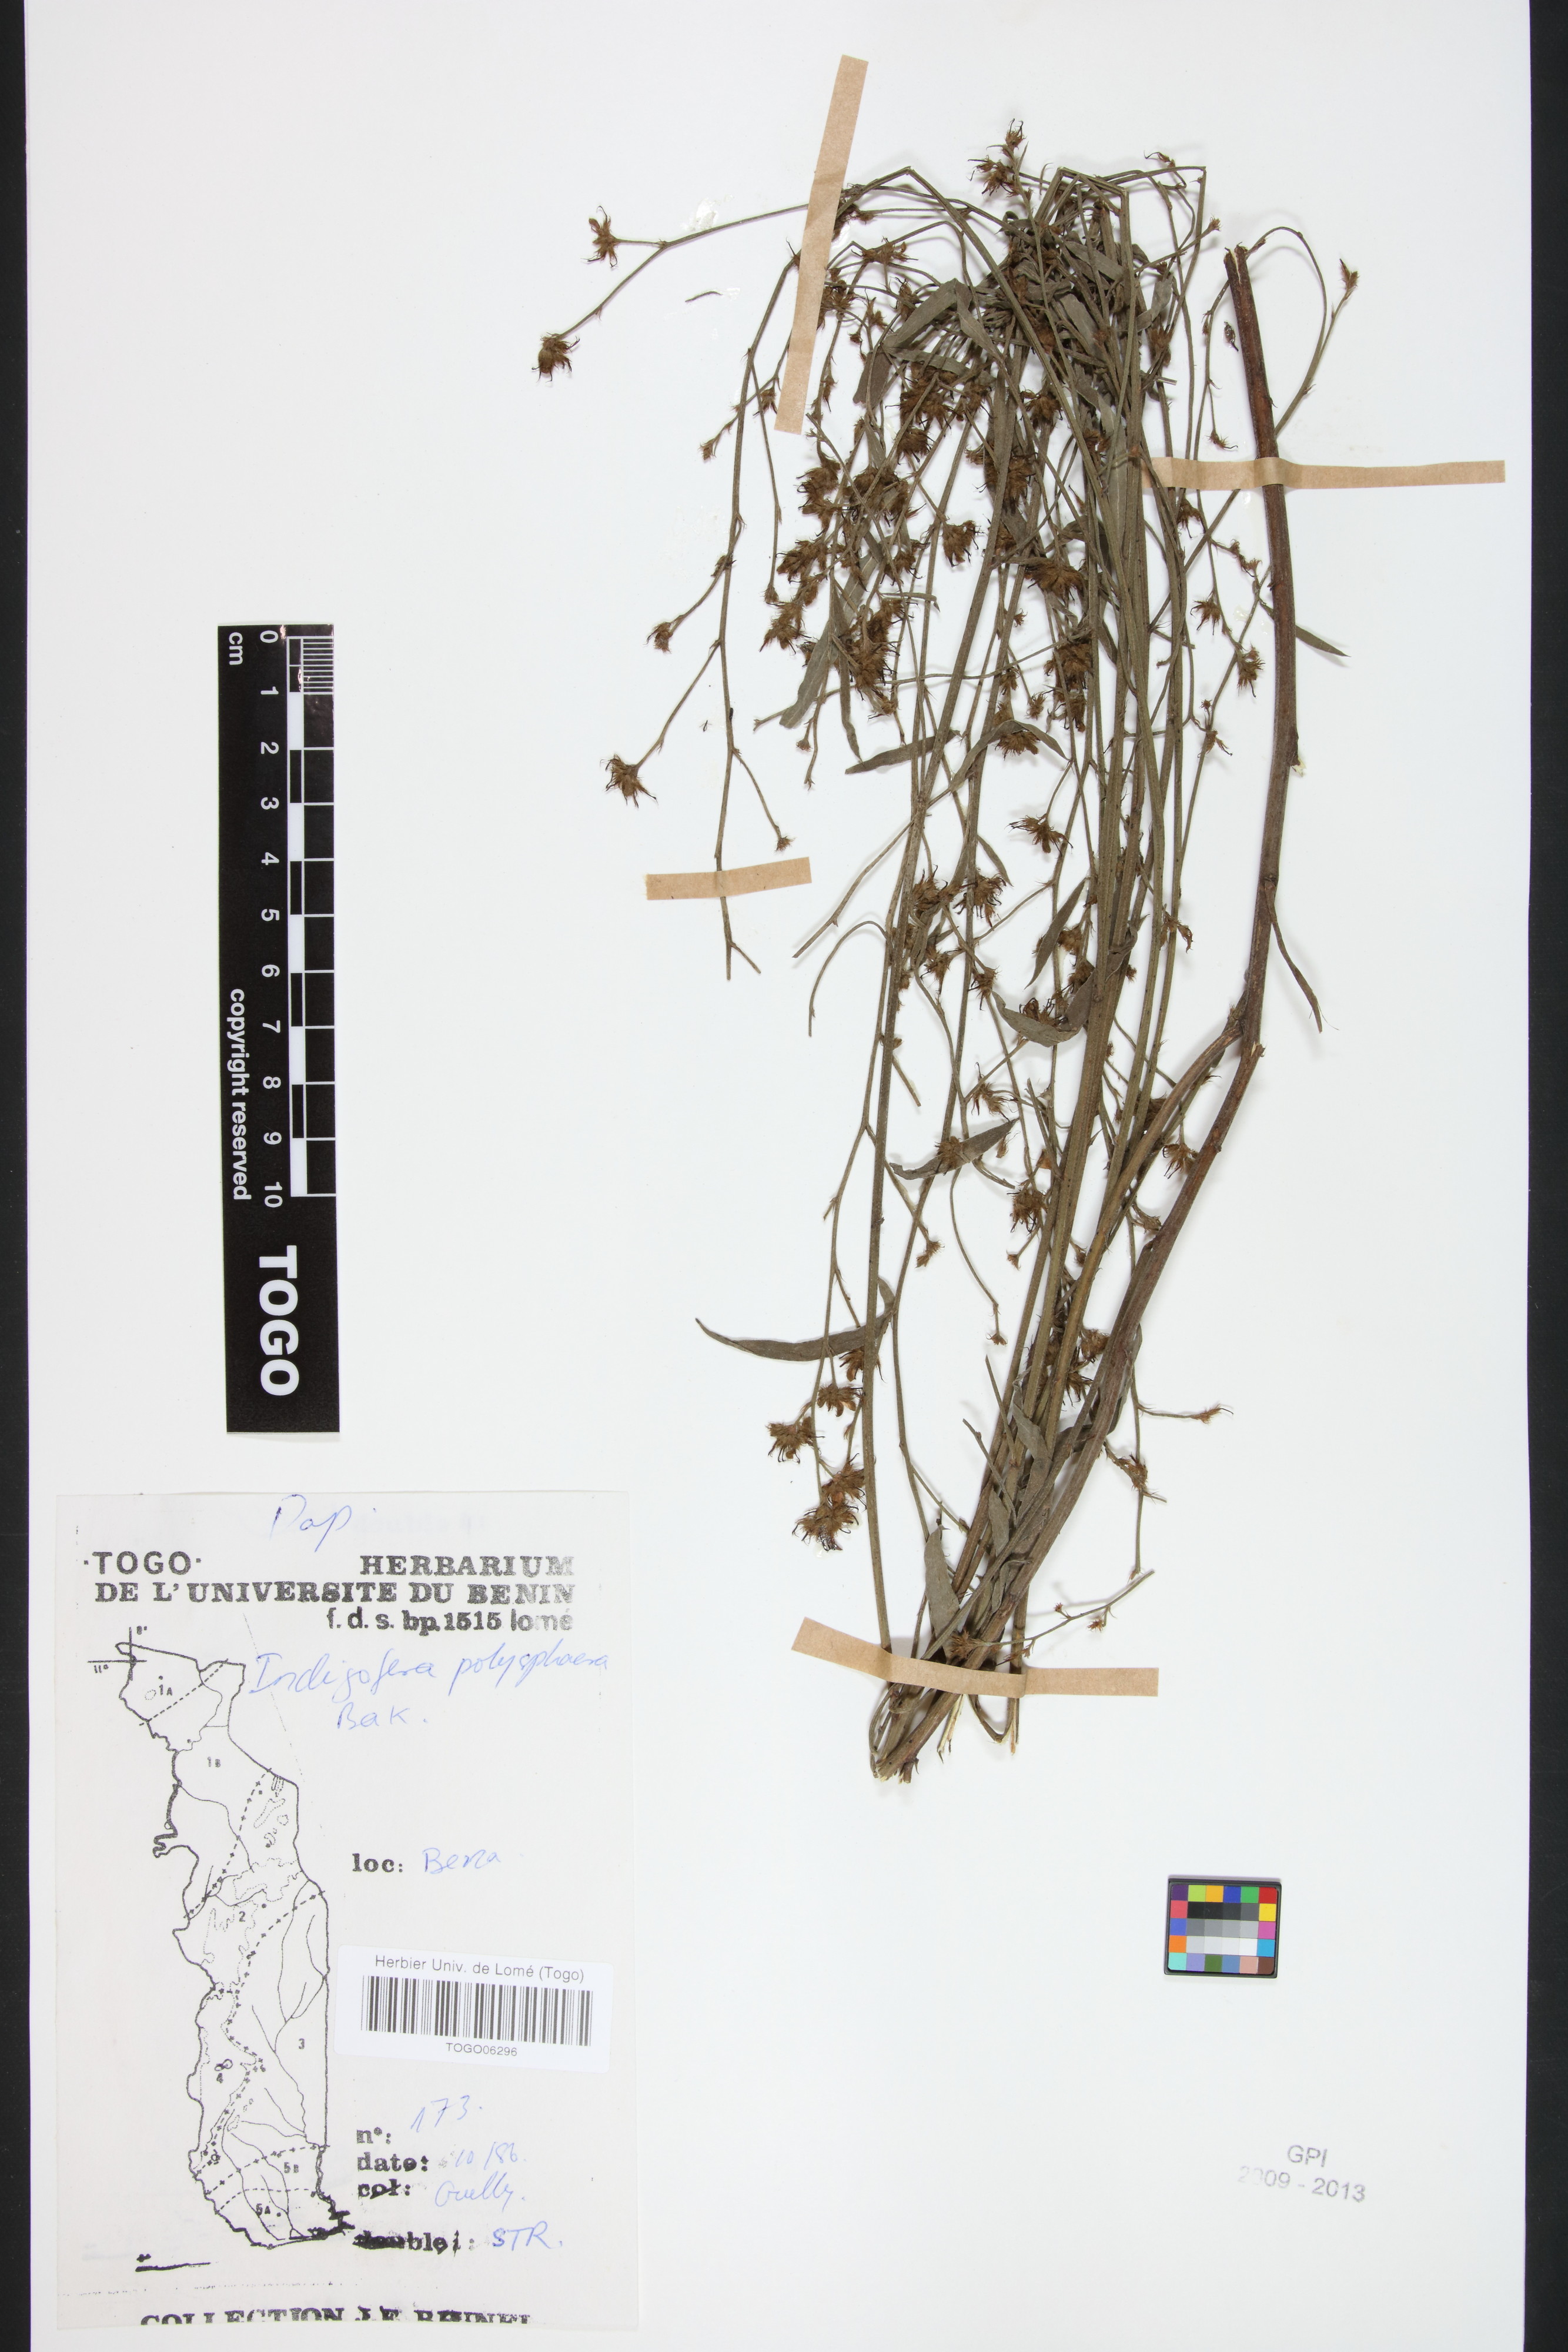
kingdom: Plantae
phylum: Tracheophyta
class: Magnoliopsida
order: Fabales
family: Fabaceae
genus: Indigofera
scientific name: Indigofera polysphaera
